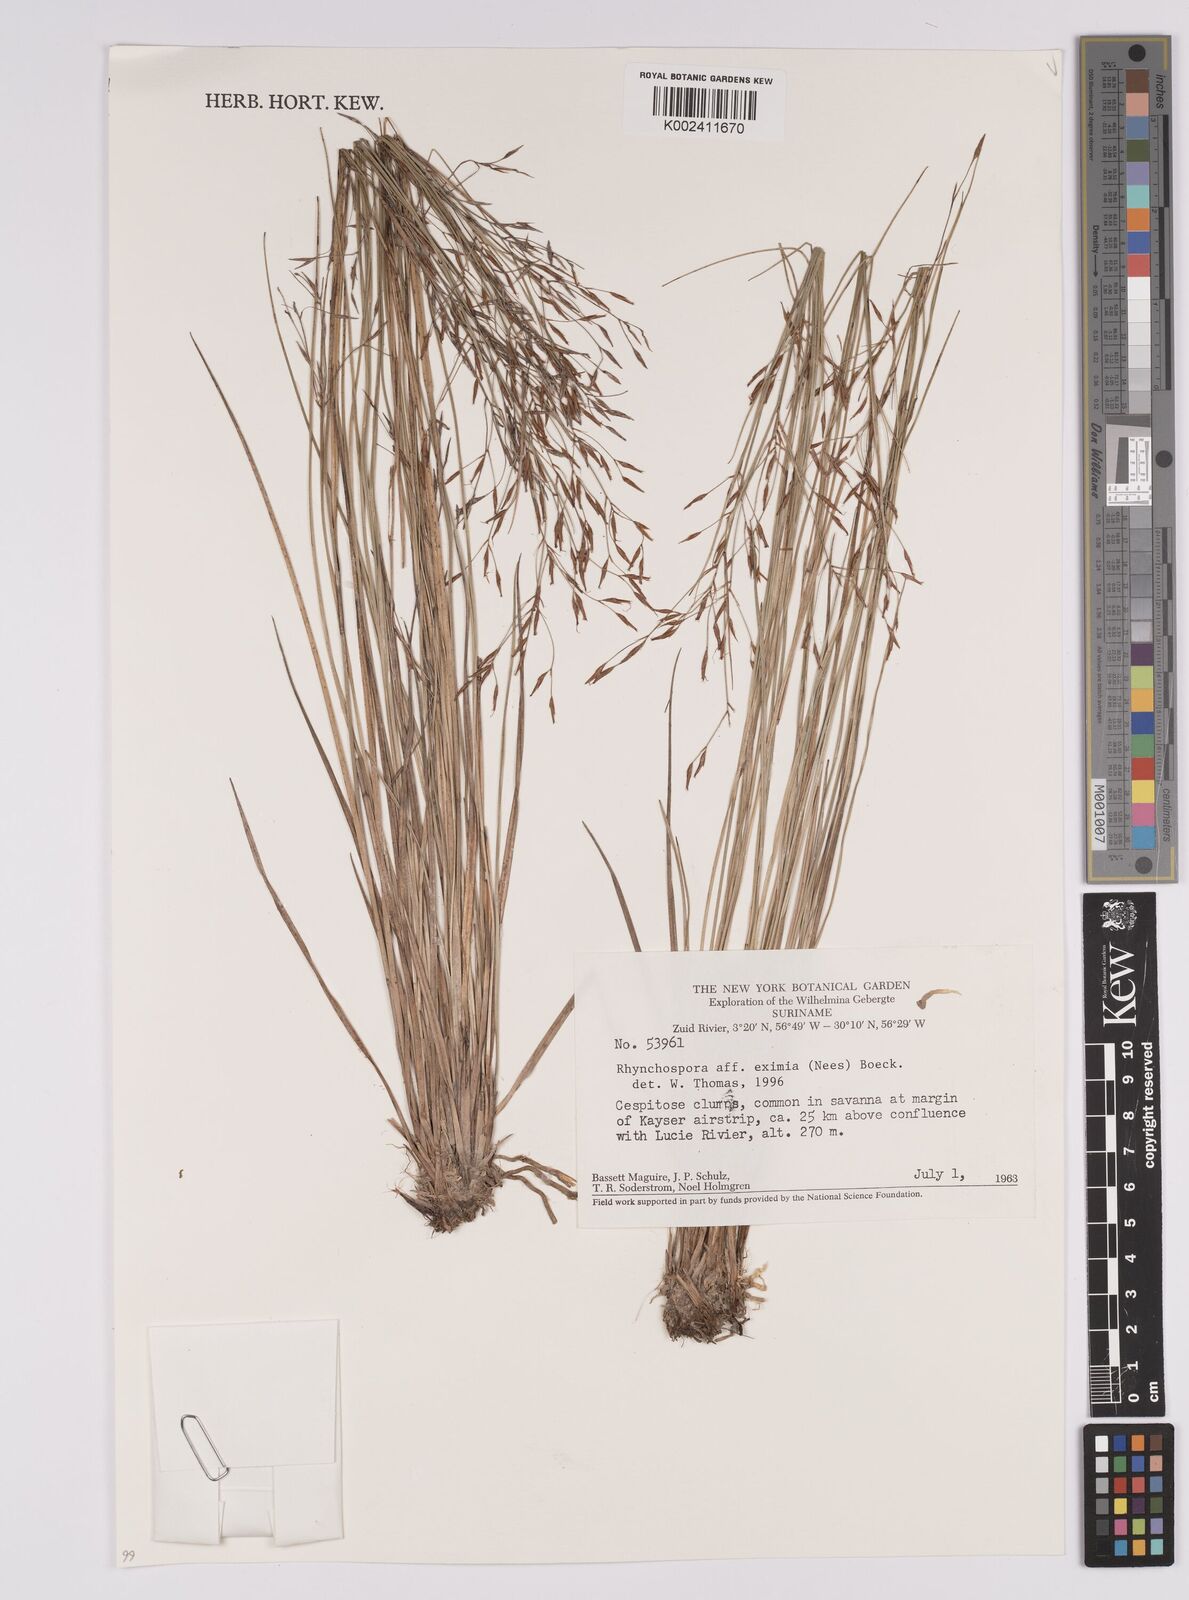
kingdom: Plantae
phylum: Tracheophyta
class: Liliopsida
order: Poales
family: Cyperaceae
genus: Rhynchospora
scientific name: Rhynchospora eximia
